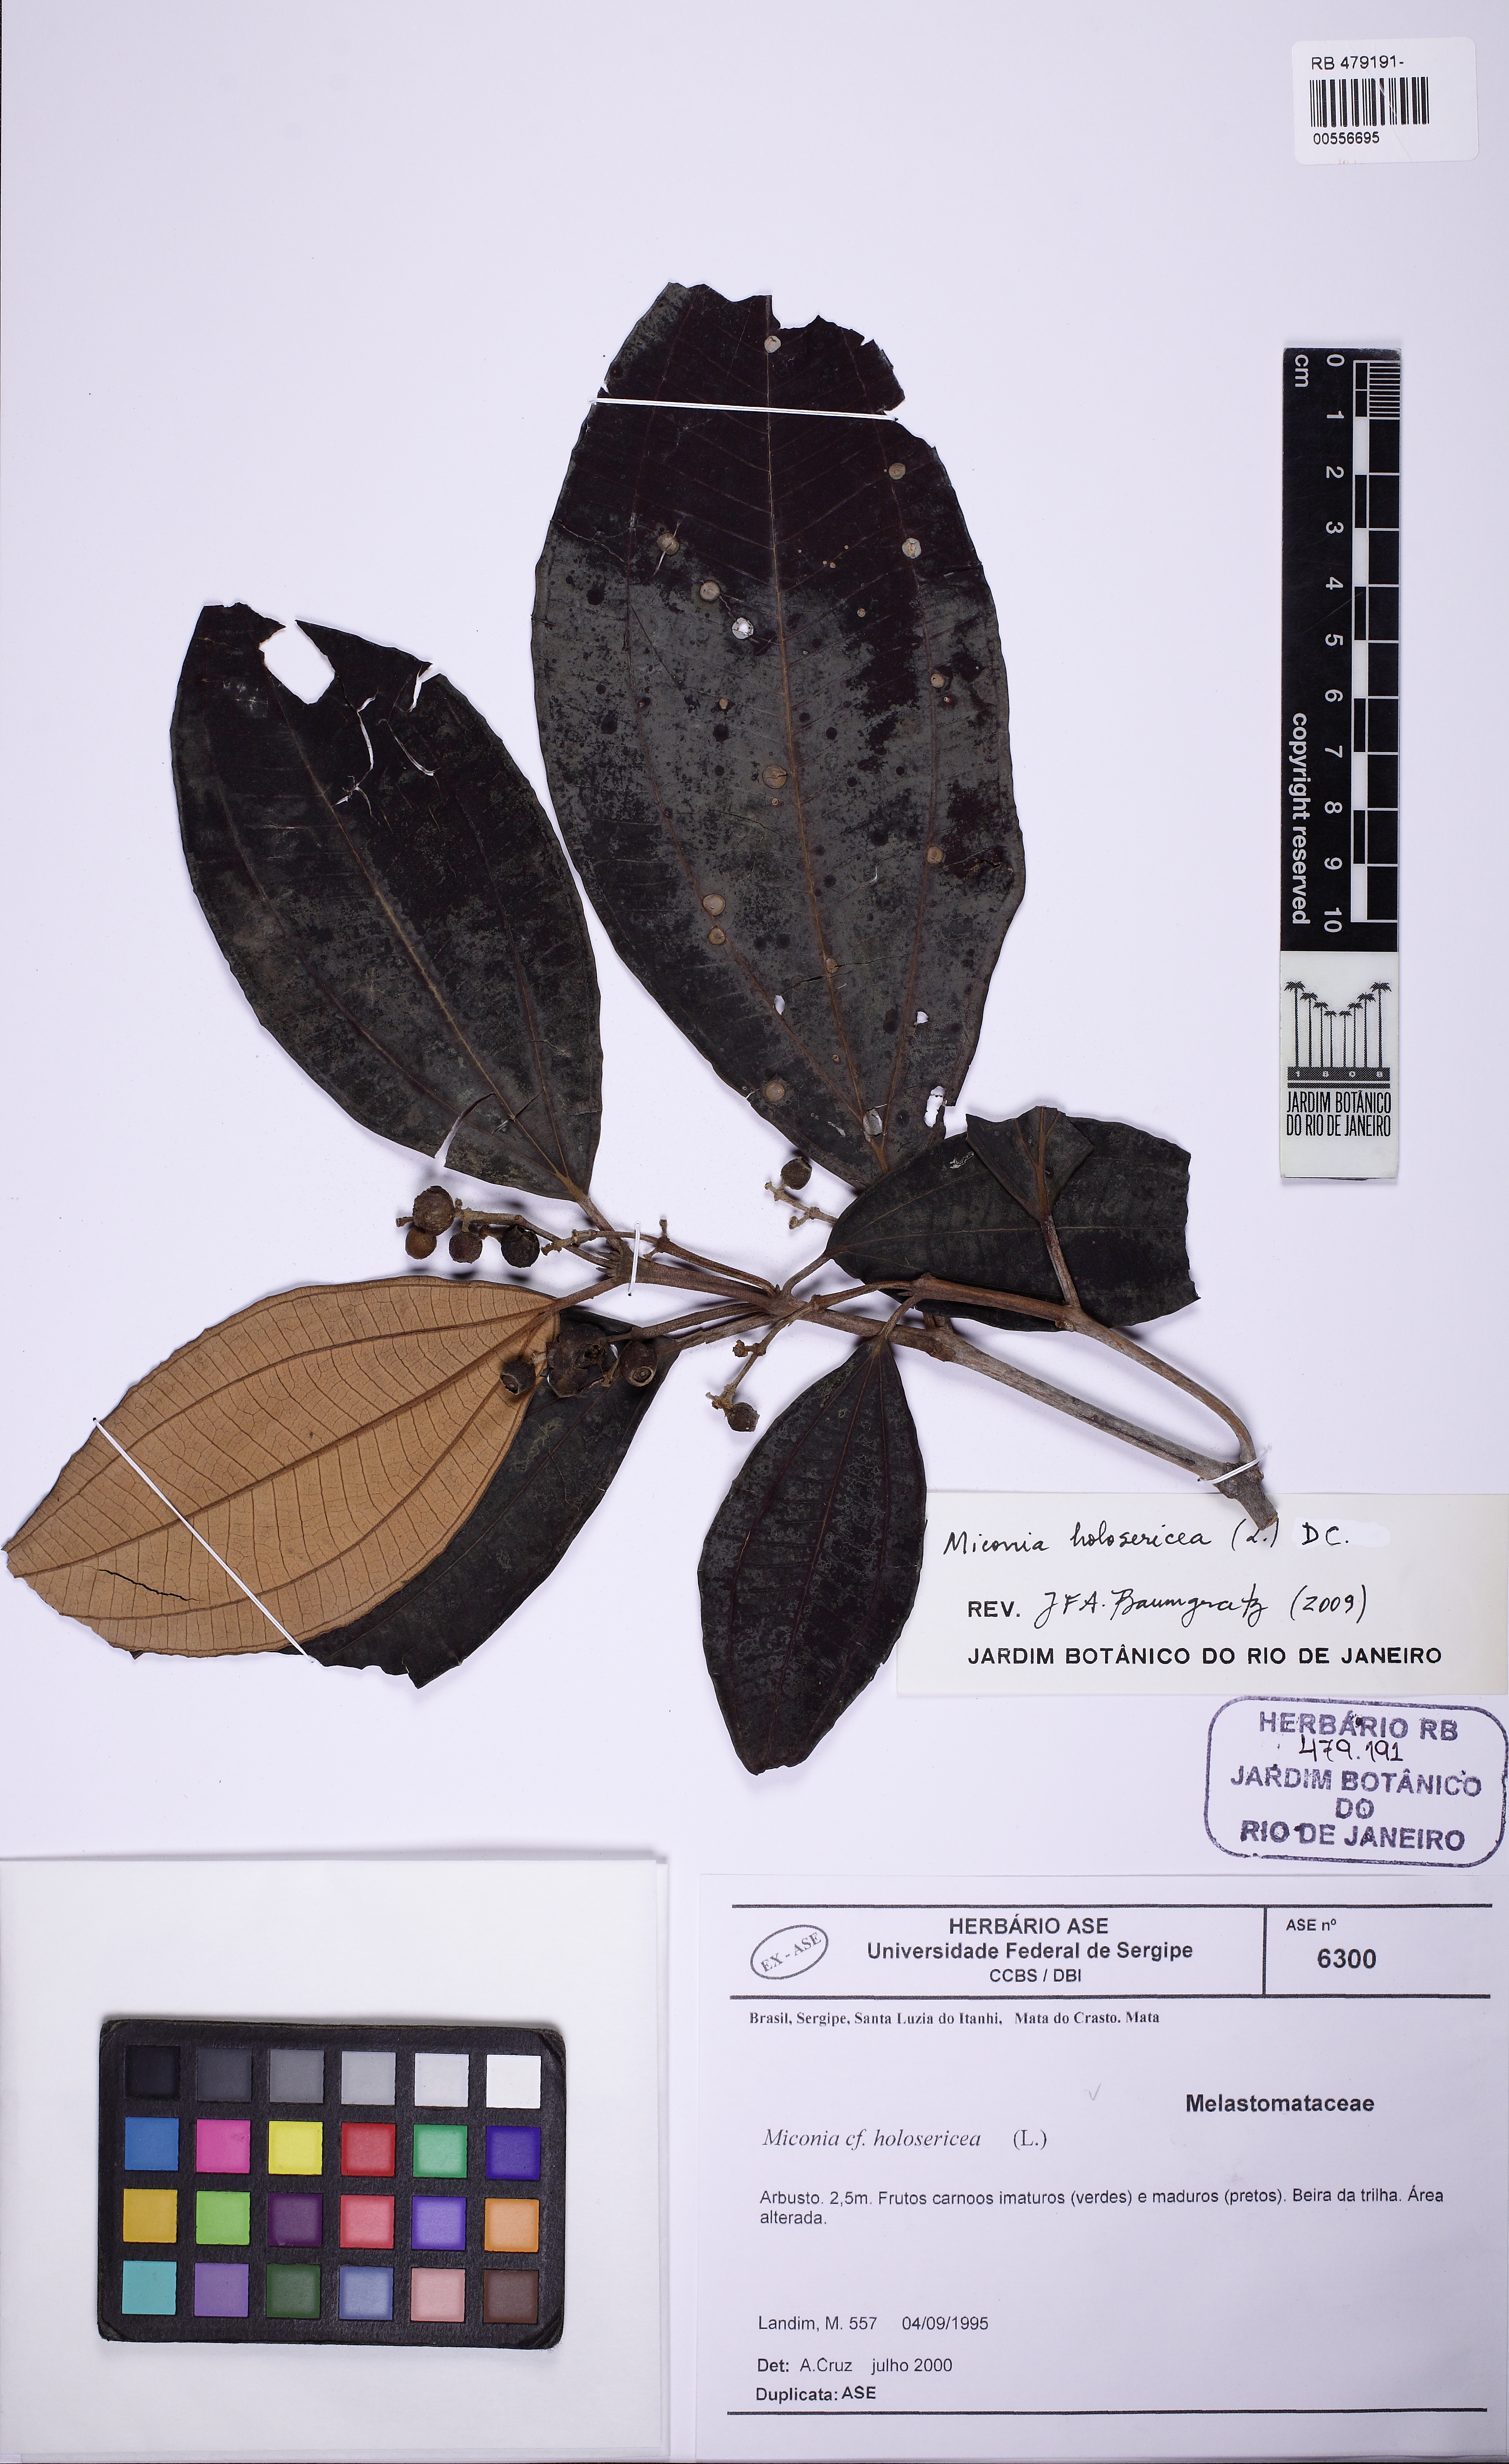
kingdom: Plantae
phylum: Tracheophyta
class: Magnoliopsida
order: Myrtales
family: Melastomataceae
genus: Miconia
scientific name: Miconia holosericea
